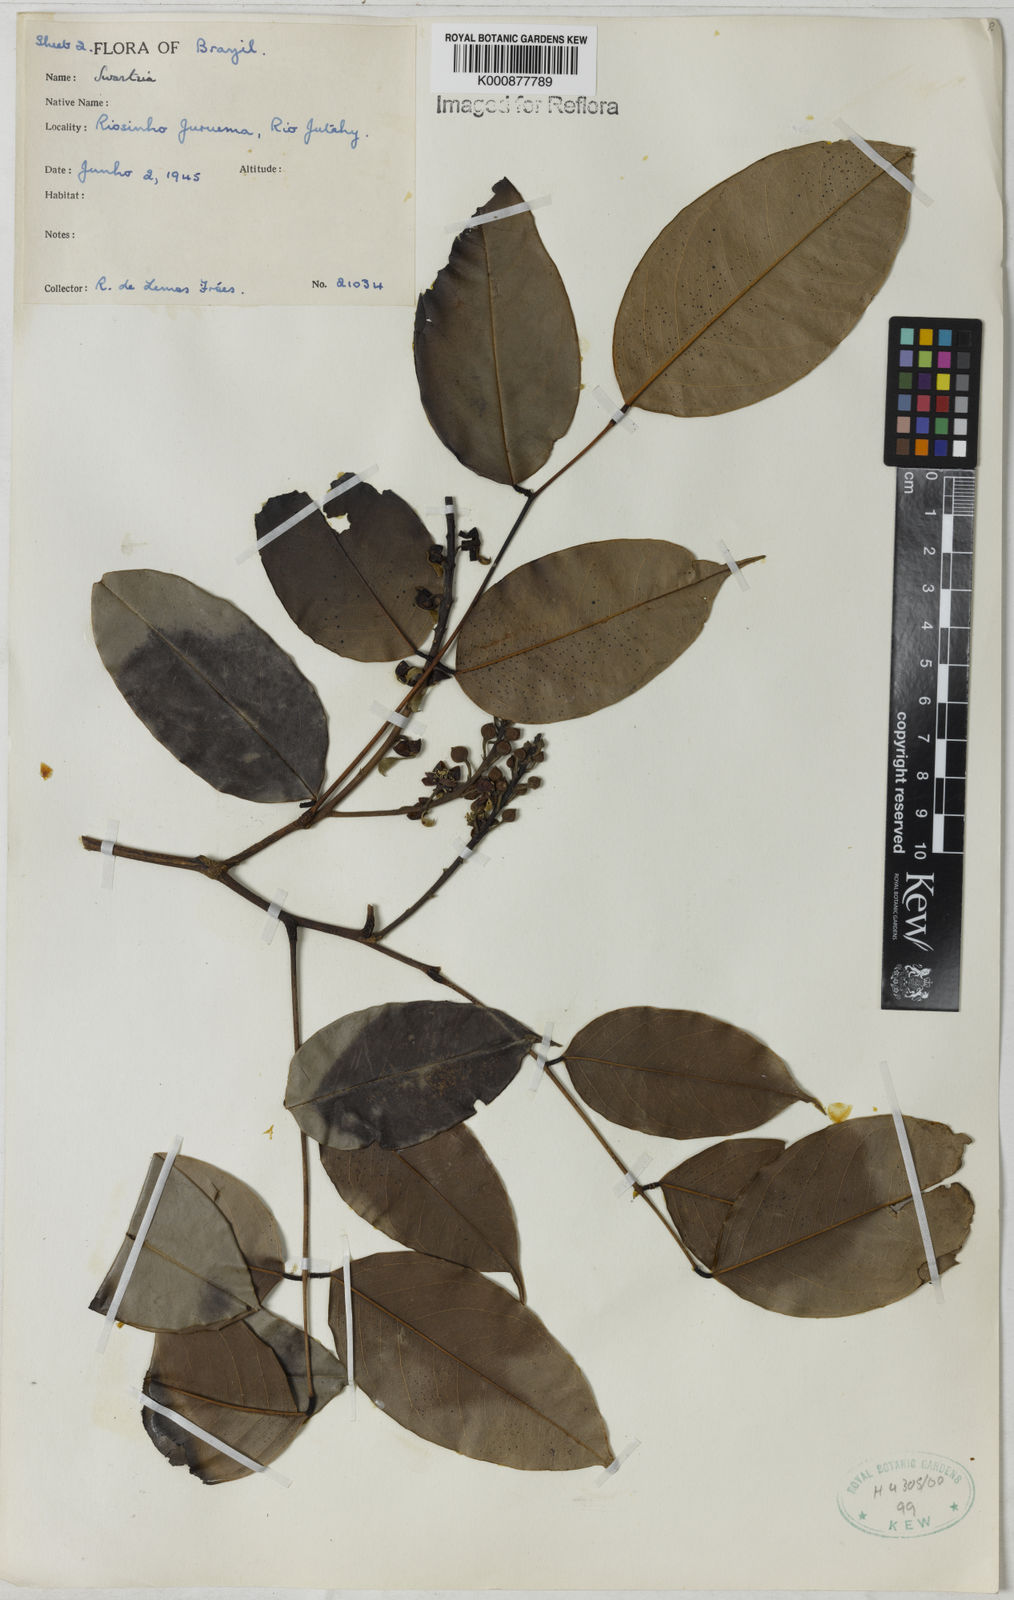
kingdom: Plantae
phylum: Tracheophyta
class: Magnoliopsida
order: Fabales
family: Fabaceae
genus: Swartzia
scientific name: Swartzia laevicarpa
